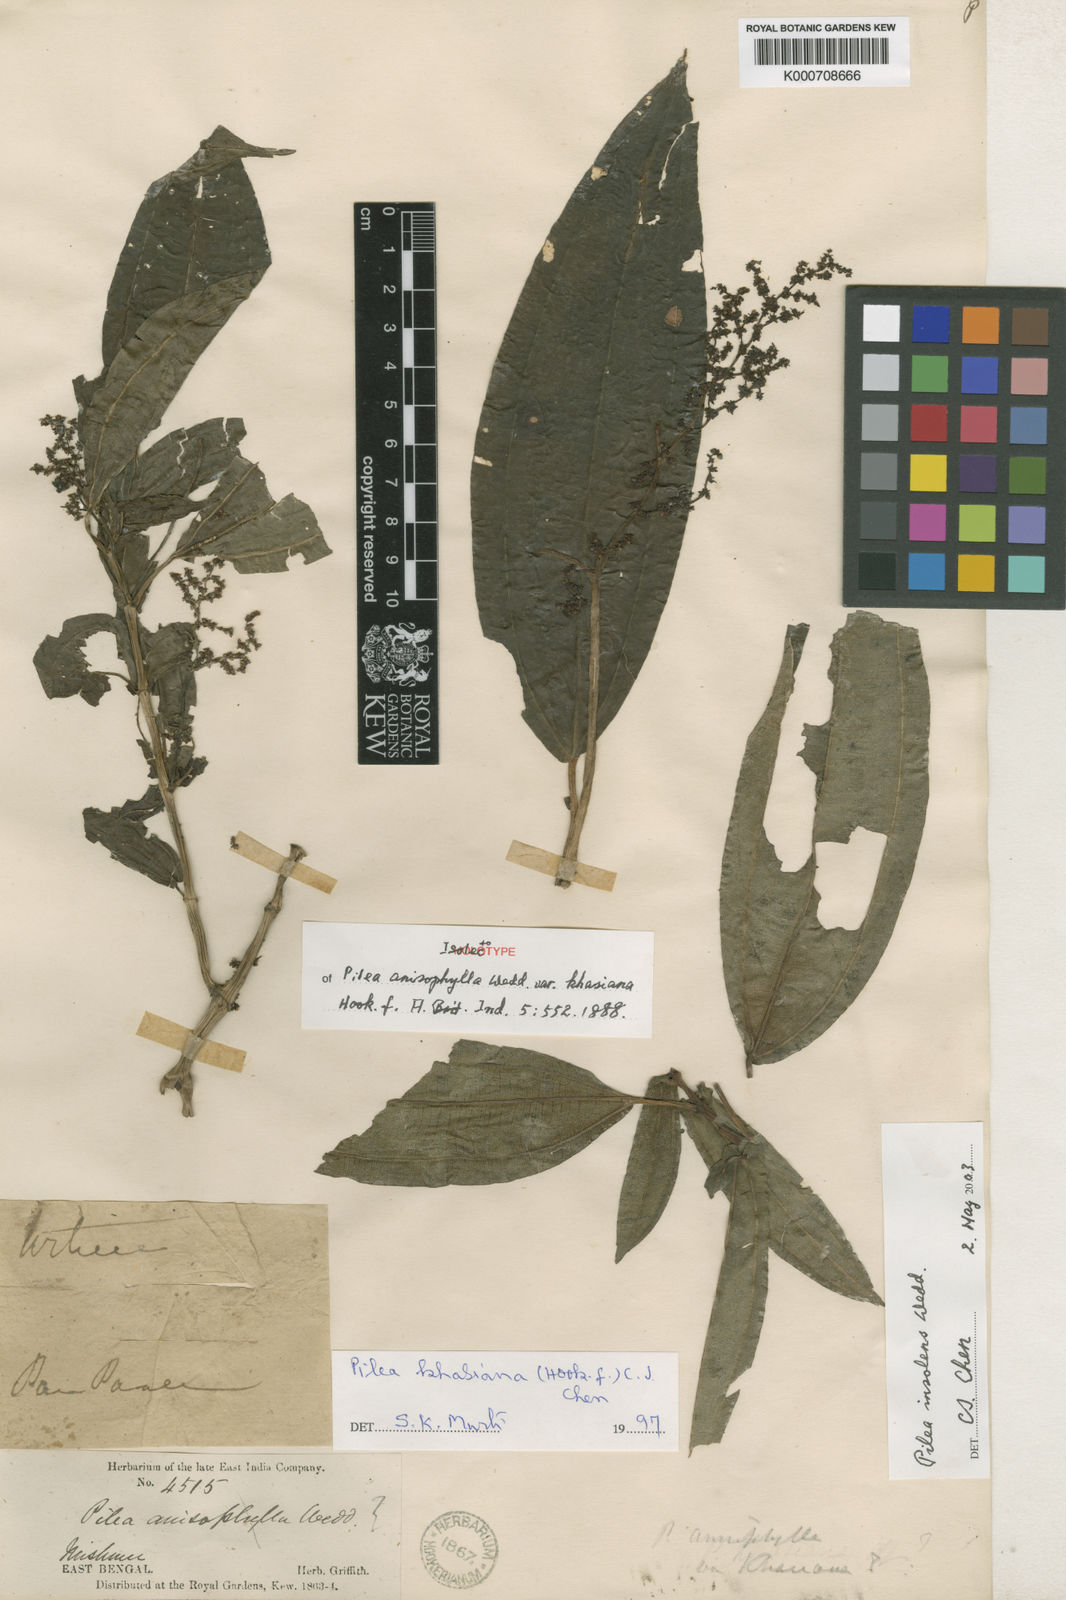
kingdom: Plantae
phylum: Tracheophyta
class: Magnoliopsida
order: Rosales
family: Urticaceae
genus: Pilea
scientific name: Pilea anisophylla
